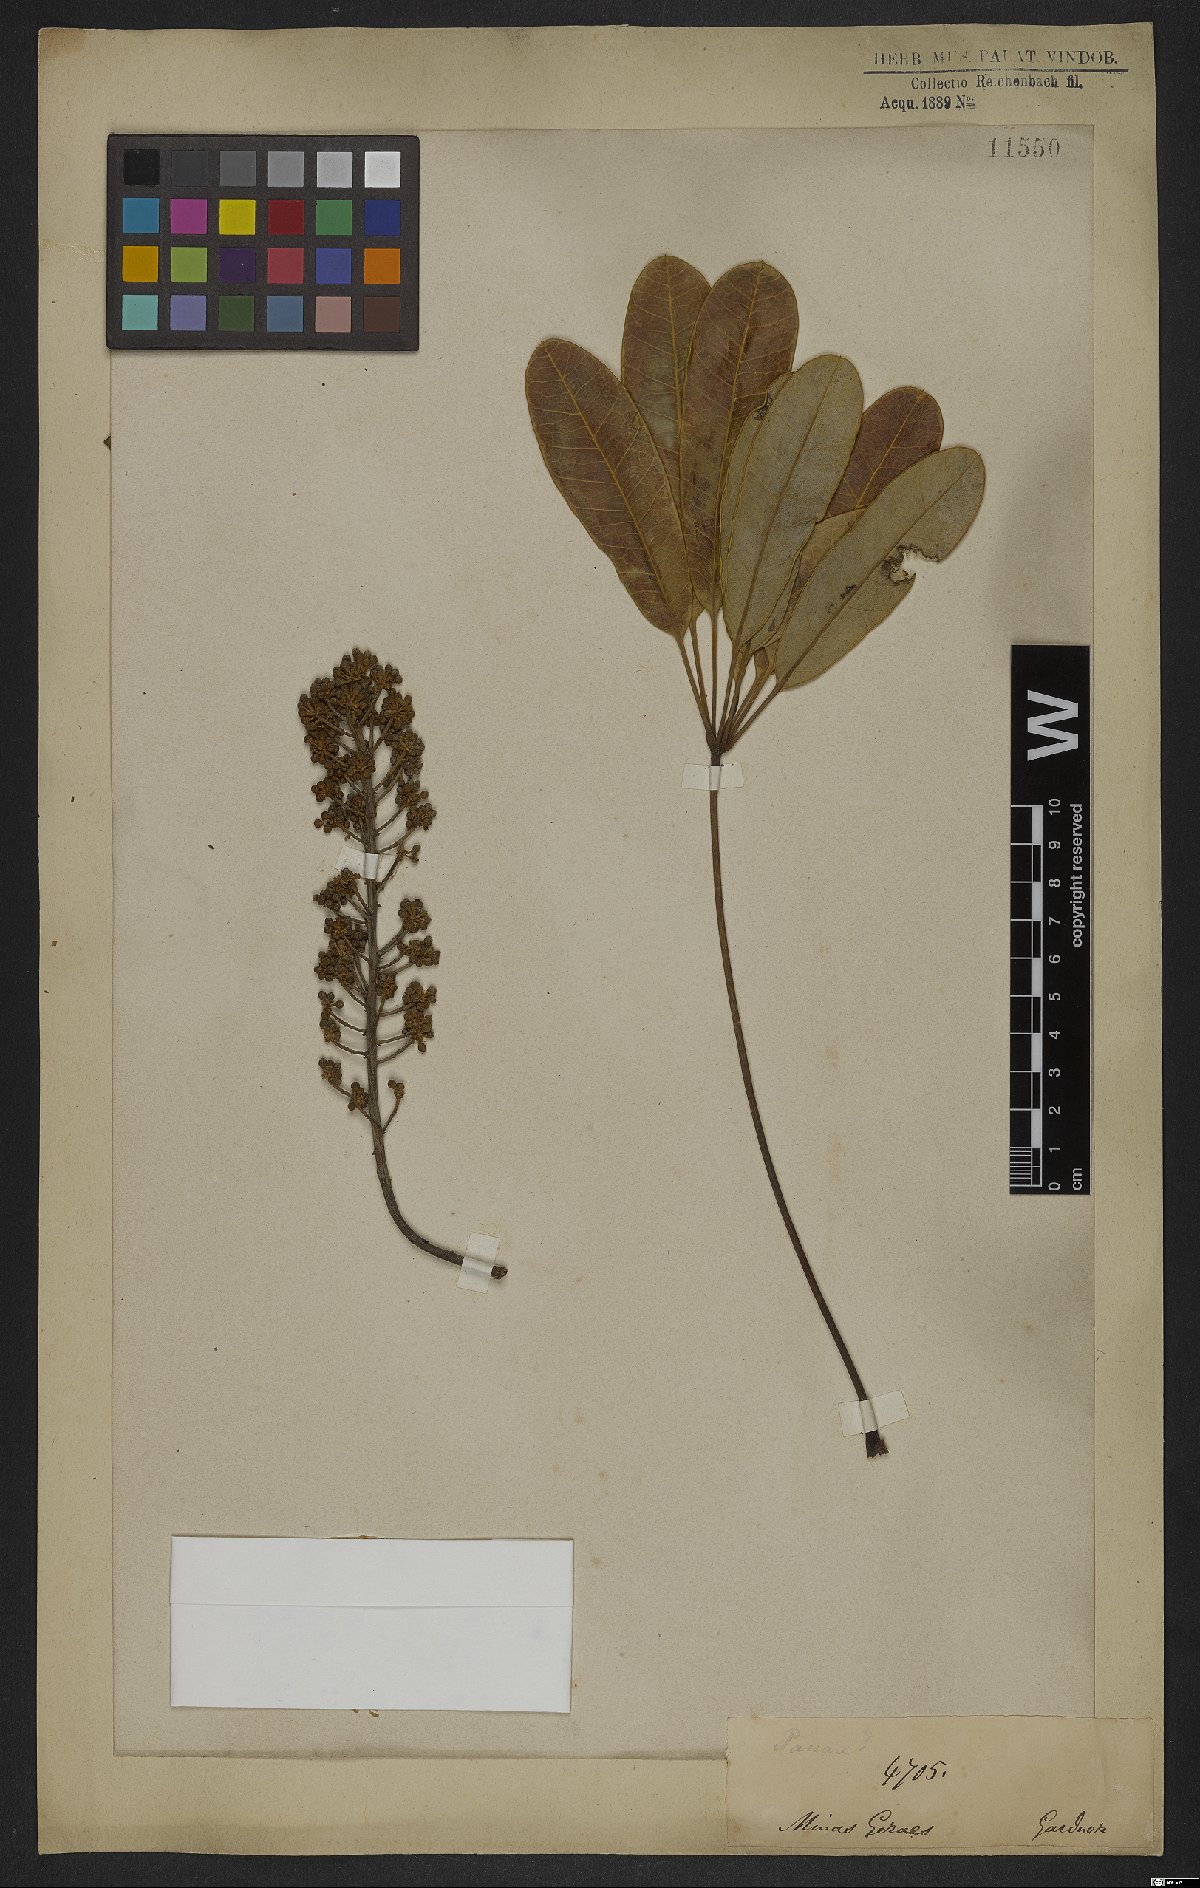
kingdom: Plantae
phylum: Tracheophyta
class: Magnoliopsida
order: Apiales
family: Araliaceae
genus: Didymopanax
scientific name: Didymopanax vinosus
